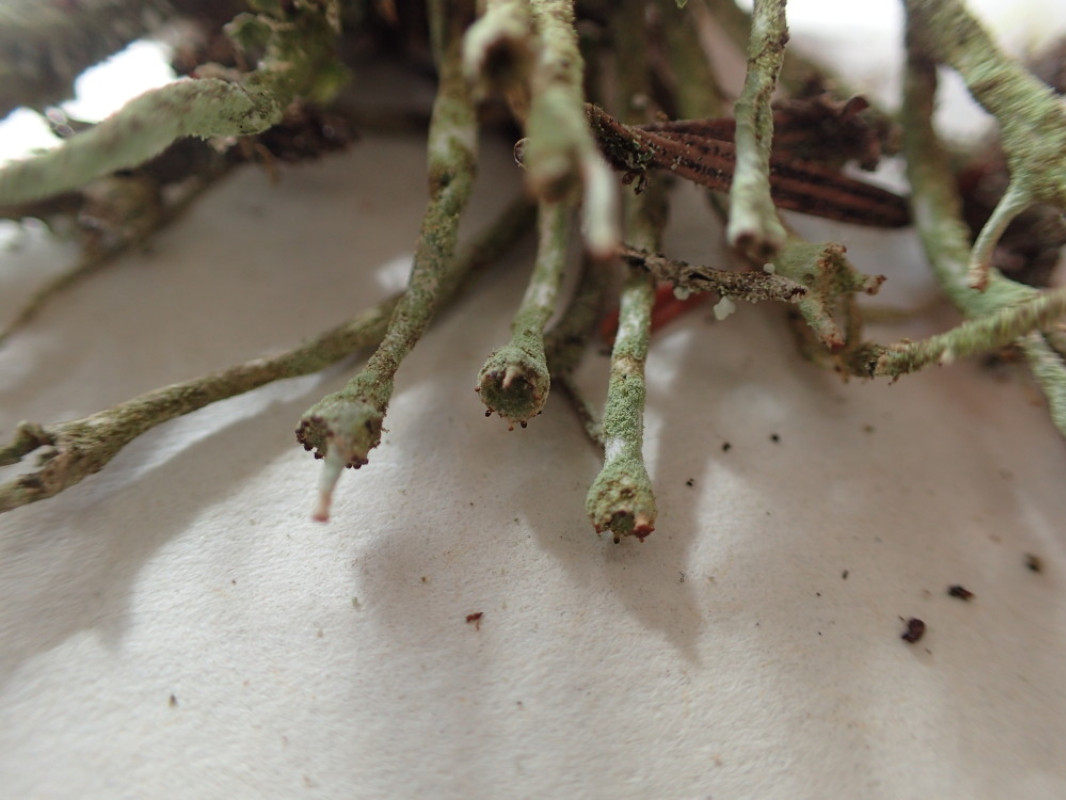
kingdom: Fungi
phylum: Ascomycota
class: Lecanoromycetes
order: Lecanorales
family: Cladoniaceae
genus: Cladonia
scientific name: Cladonia gracilis
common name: slank bægerlav
